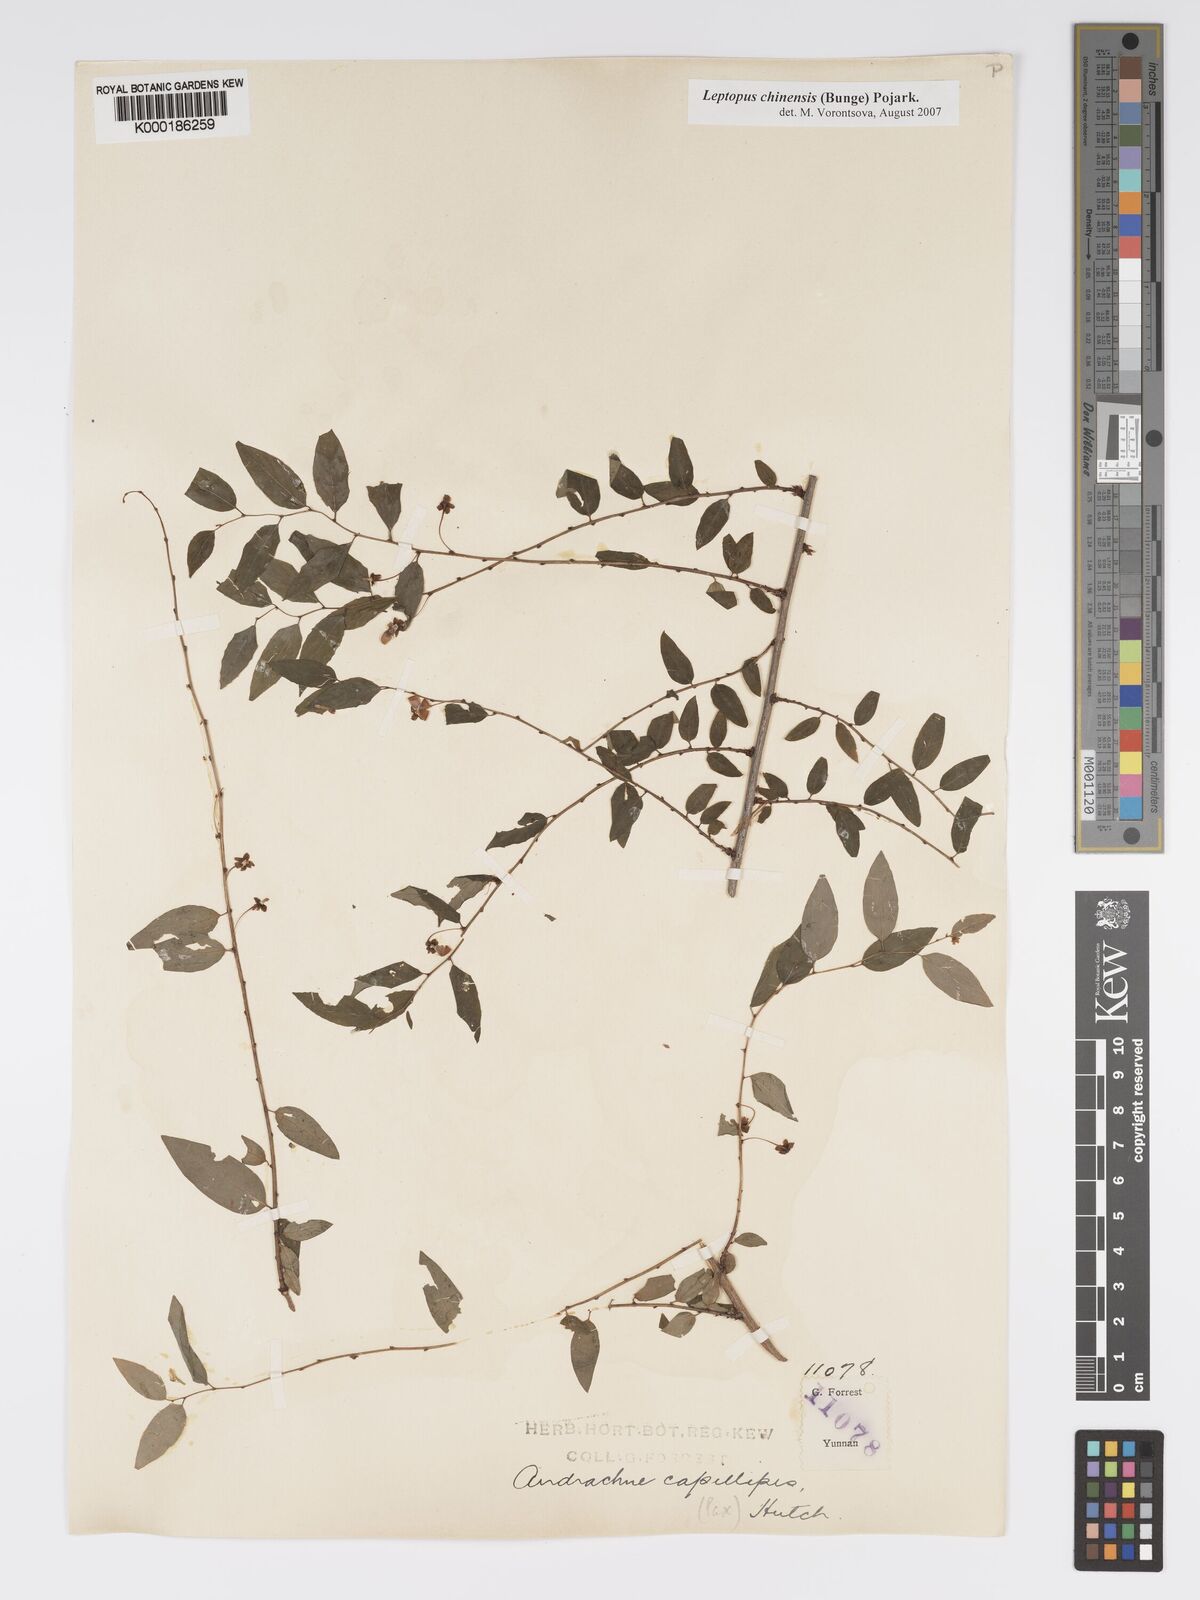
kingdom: Plantae
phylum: Tracheophyta
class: Magnoliopsida
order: Malpighiales
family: Phyllanthaceae
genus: Leptopus
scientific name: Leptopus chinensis
